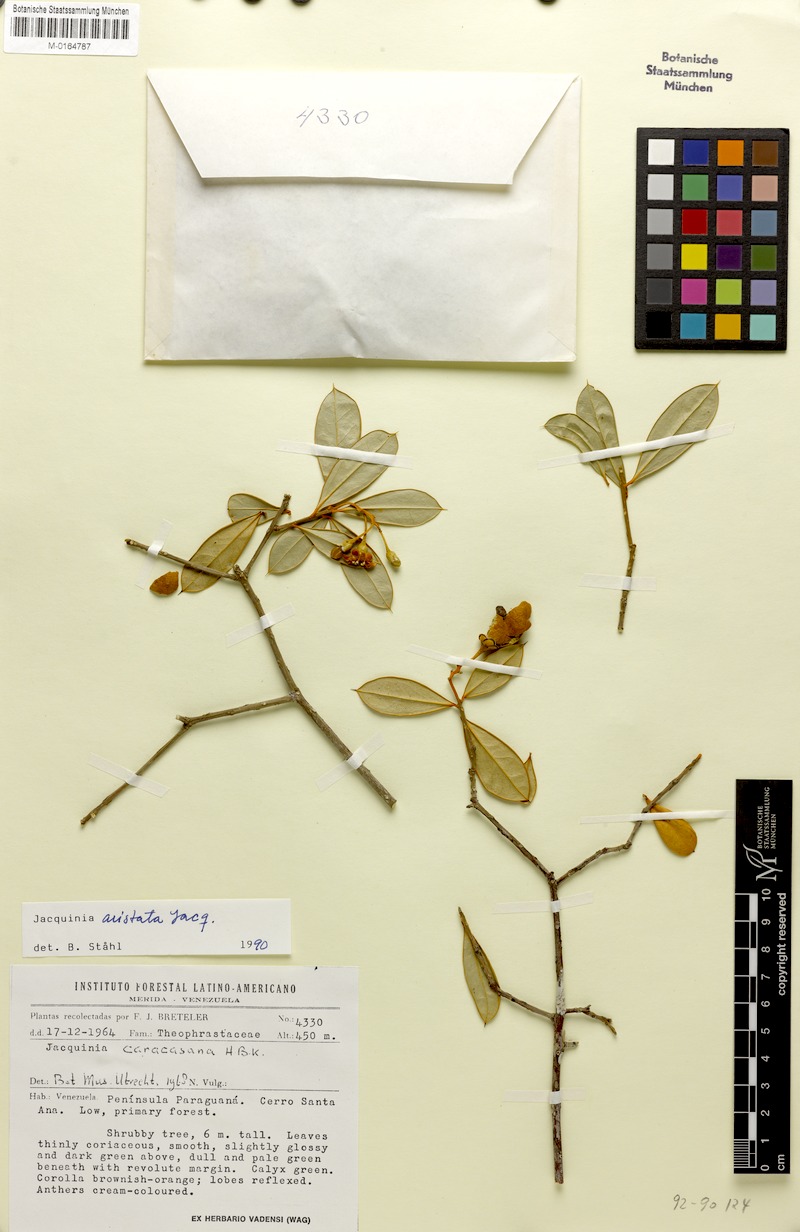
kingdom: Plantae
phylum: Tracheophyta
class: Magnoliopsida
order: Ericales
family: Primulaceae
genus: Bonellia
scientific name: Bonellia frutescens
